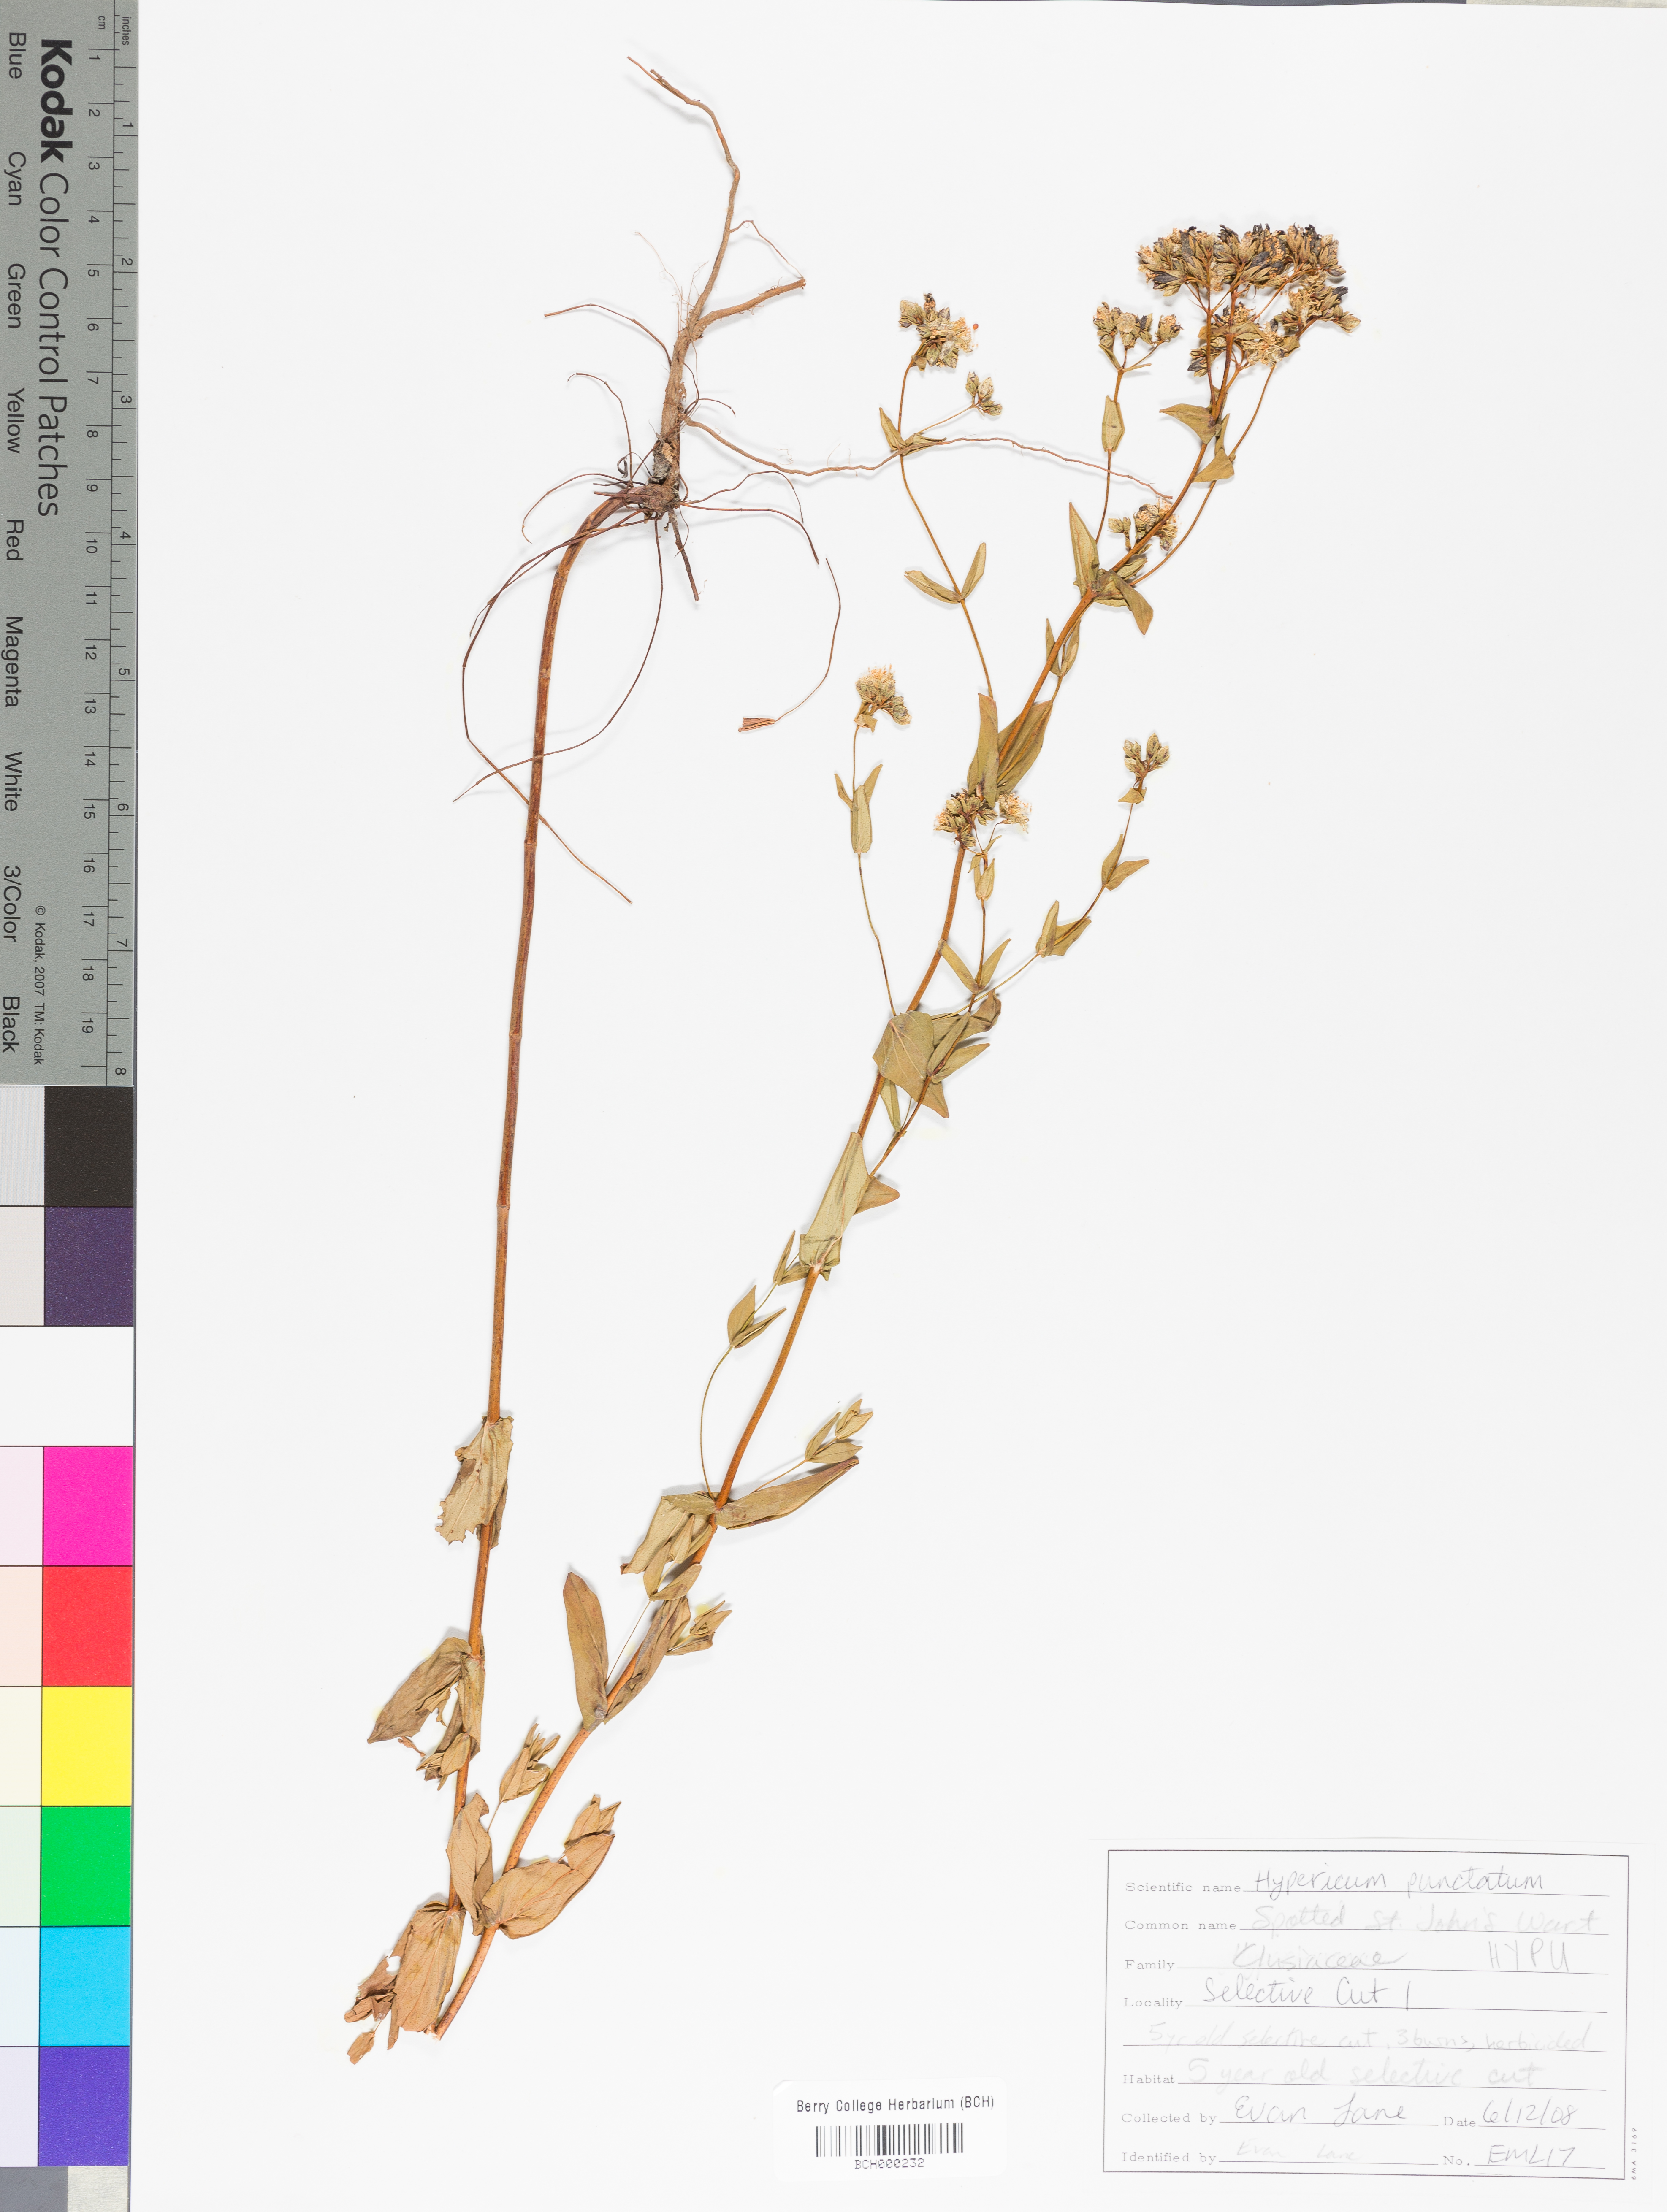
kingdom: Plantae
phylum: Tracheophyta
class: Magnoliopsida
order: Malpighiales
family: Hypericaceae
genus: Hypericum
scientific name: Hypericum punctatum
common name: Spotted st. john's-wort
